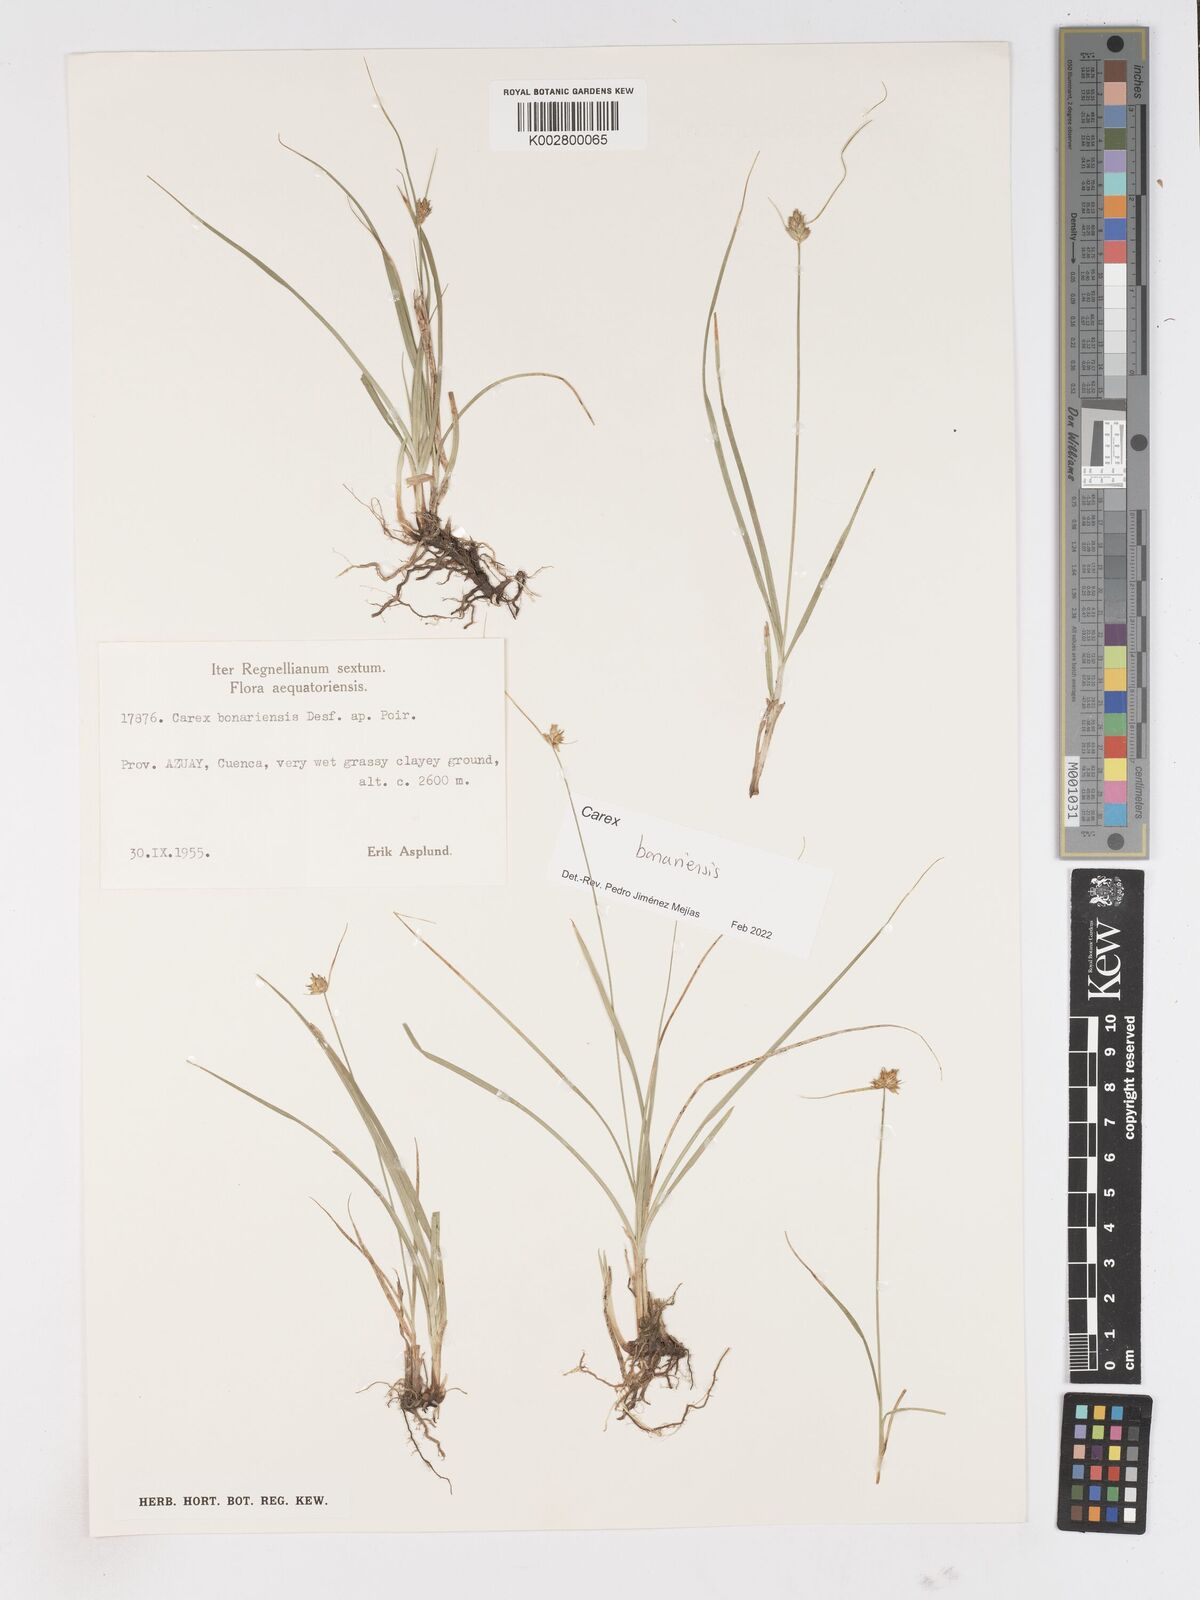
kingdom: Plantae
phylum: Tracheophyta
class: Liliopsida
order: Poales
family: Cyperaceae
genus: Carex
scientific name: Carex bonariensis
